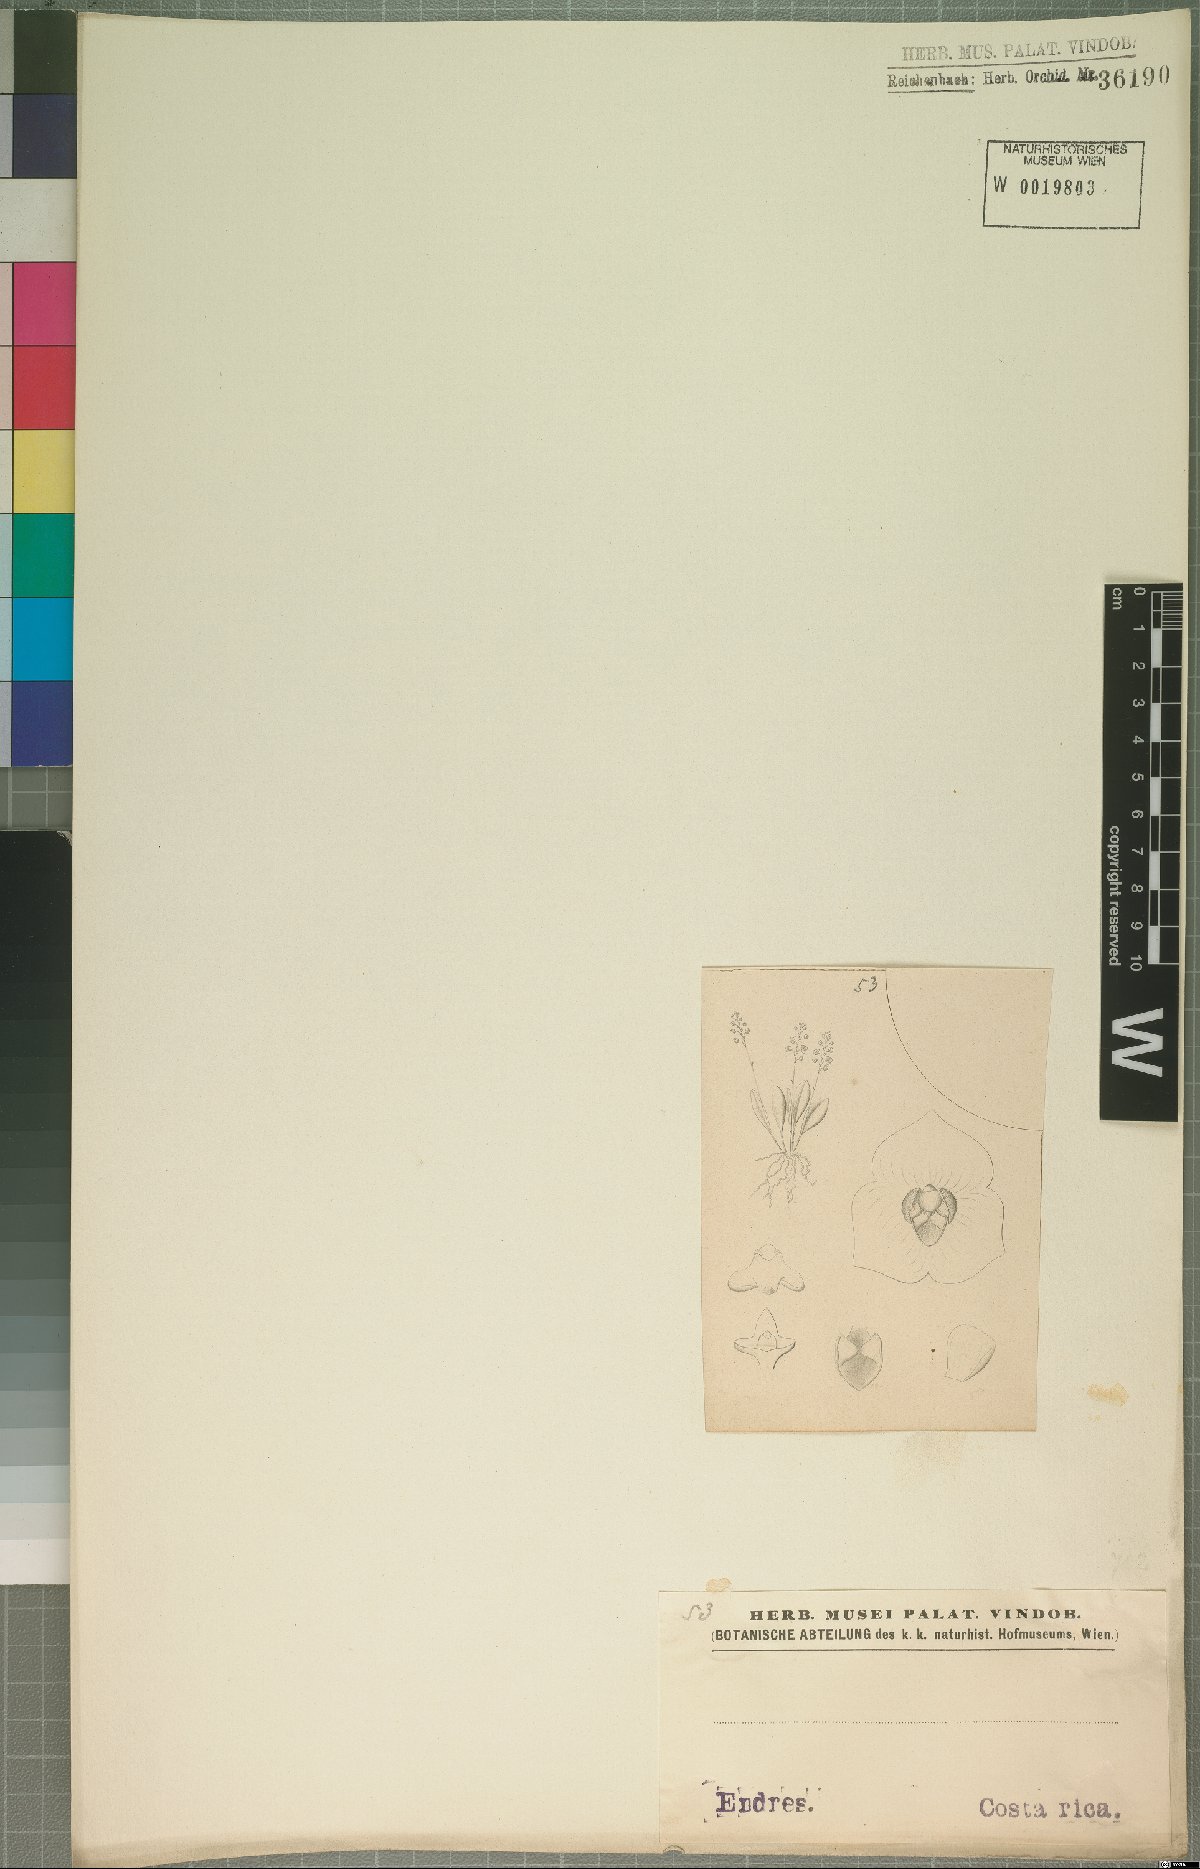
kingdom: Plantae
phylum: Tracheophyta
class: Liliopsida
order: Asparagales
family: Orchidaceae
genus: Stelis
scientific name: Stelis
